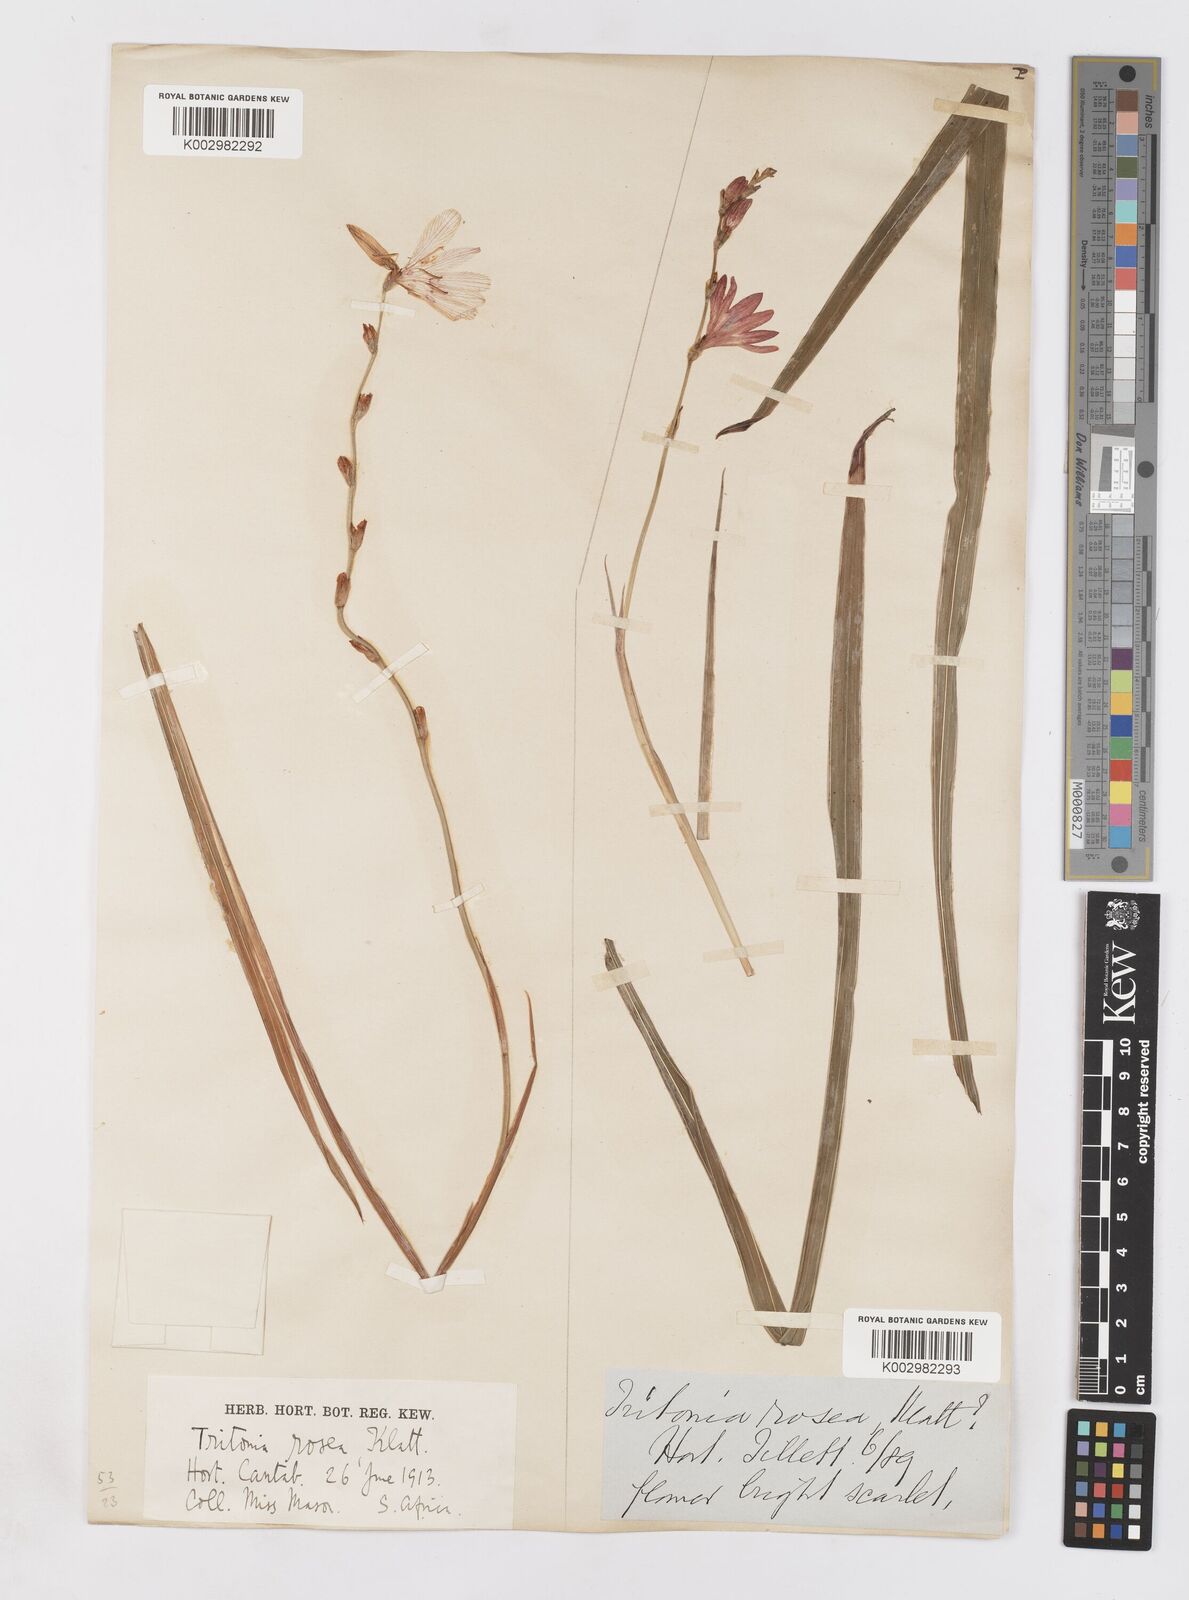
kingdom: Plantae
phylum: Tracheophyta
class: Liliopsida
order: Asparagales
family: Iridaceae
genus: Tritonia
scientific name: Tritonia disticha
